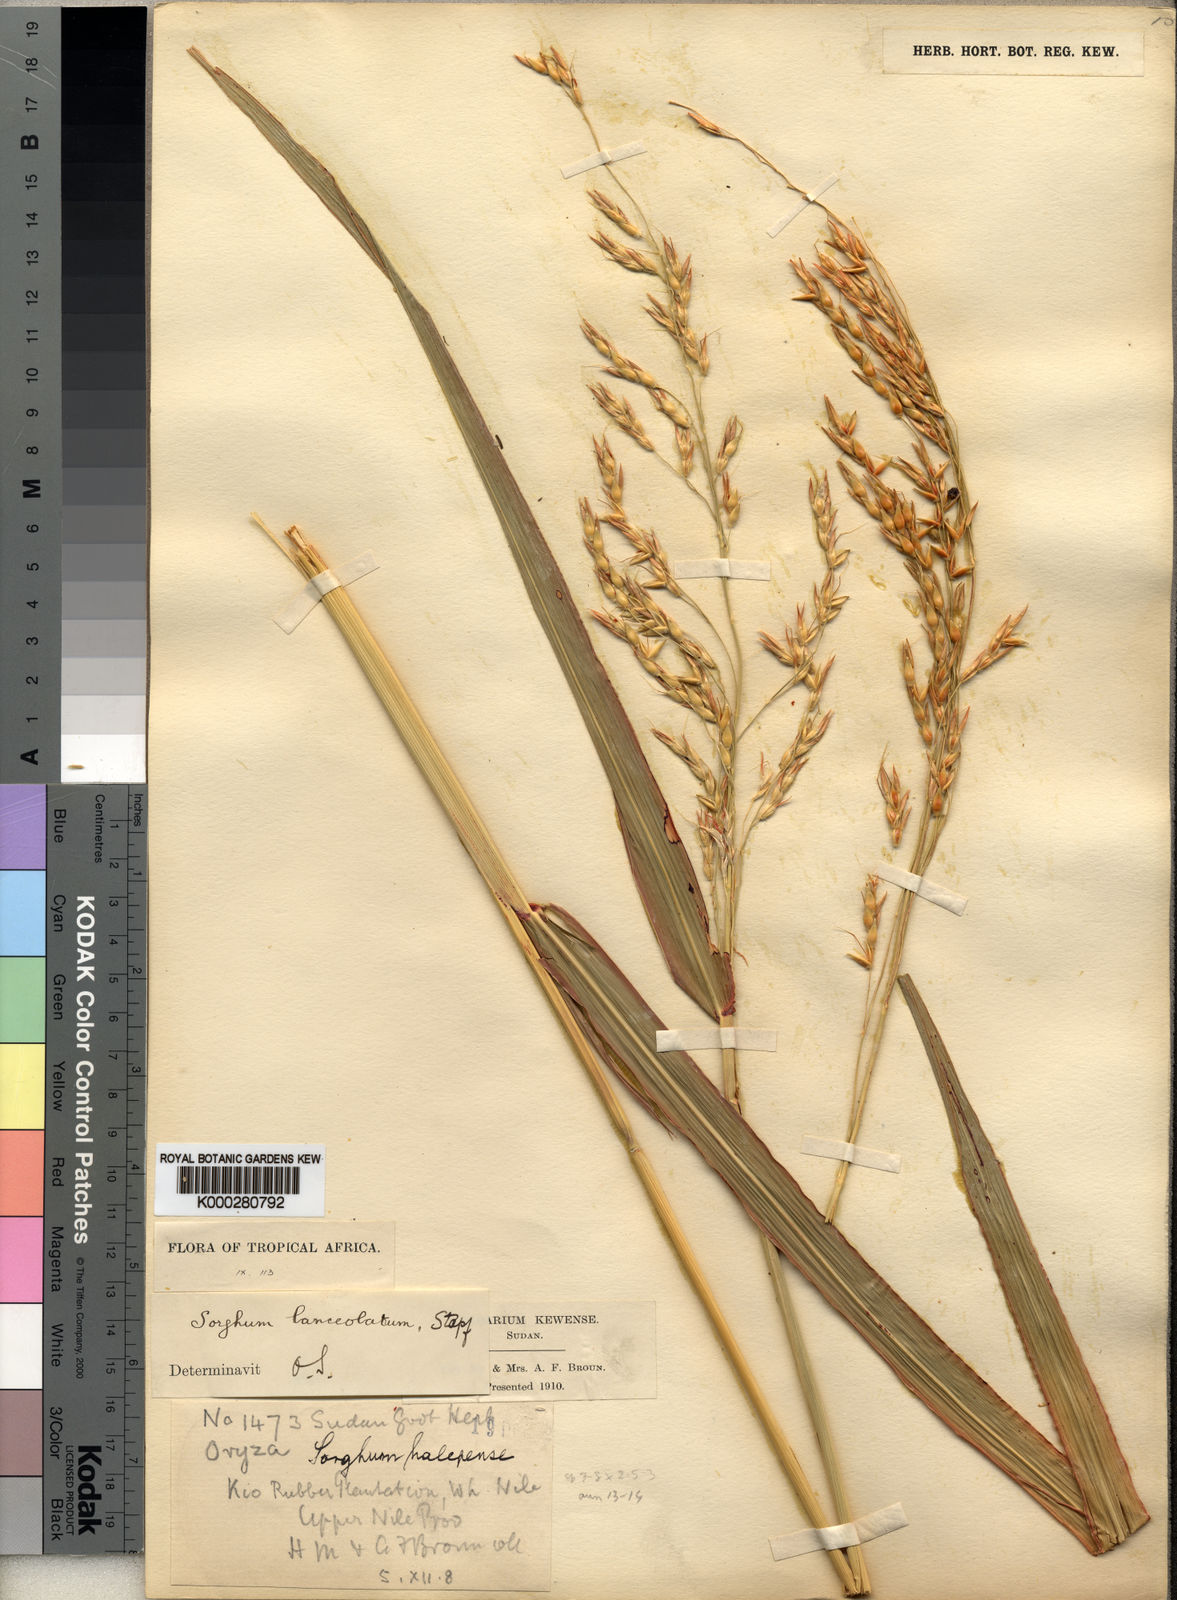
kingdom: Plantae
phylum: Tracheophyta
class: Liliopsida
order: Poales
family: Poaceae
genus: Sorghum
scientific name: Sorghum arundinaceum
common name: Sorghum
